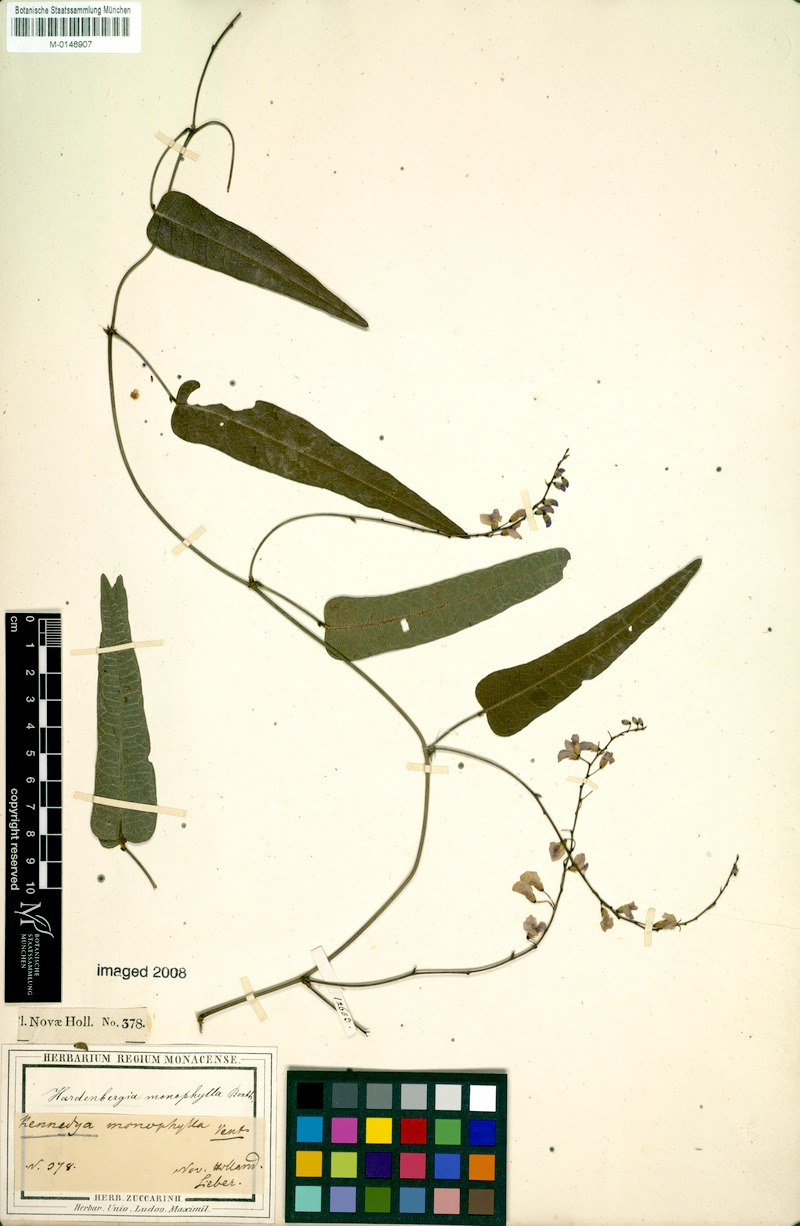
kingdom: Plantae
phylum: Tracheophyta
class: Magnoliopsida
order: Fabales
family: Fabaceae
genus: Hardenbergia
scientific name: Hardenbergia violacea
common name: Coral-pea
